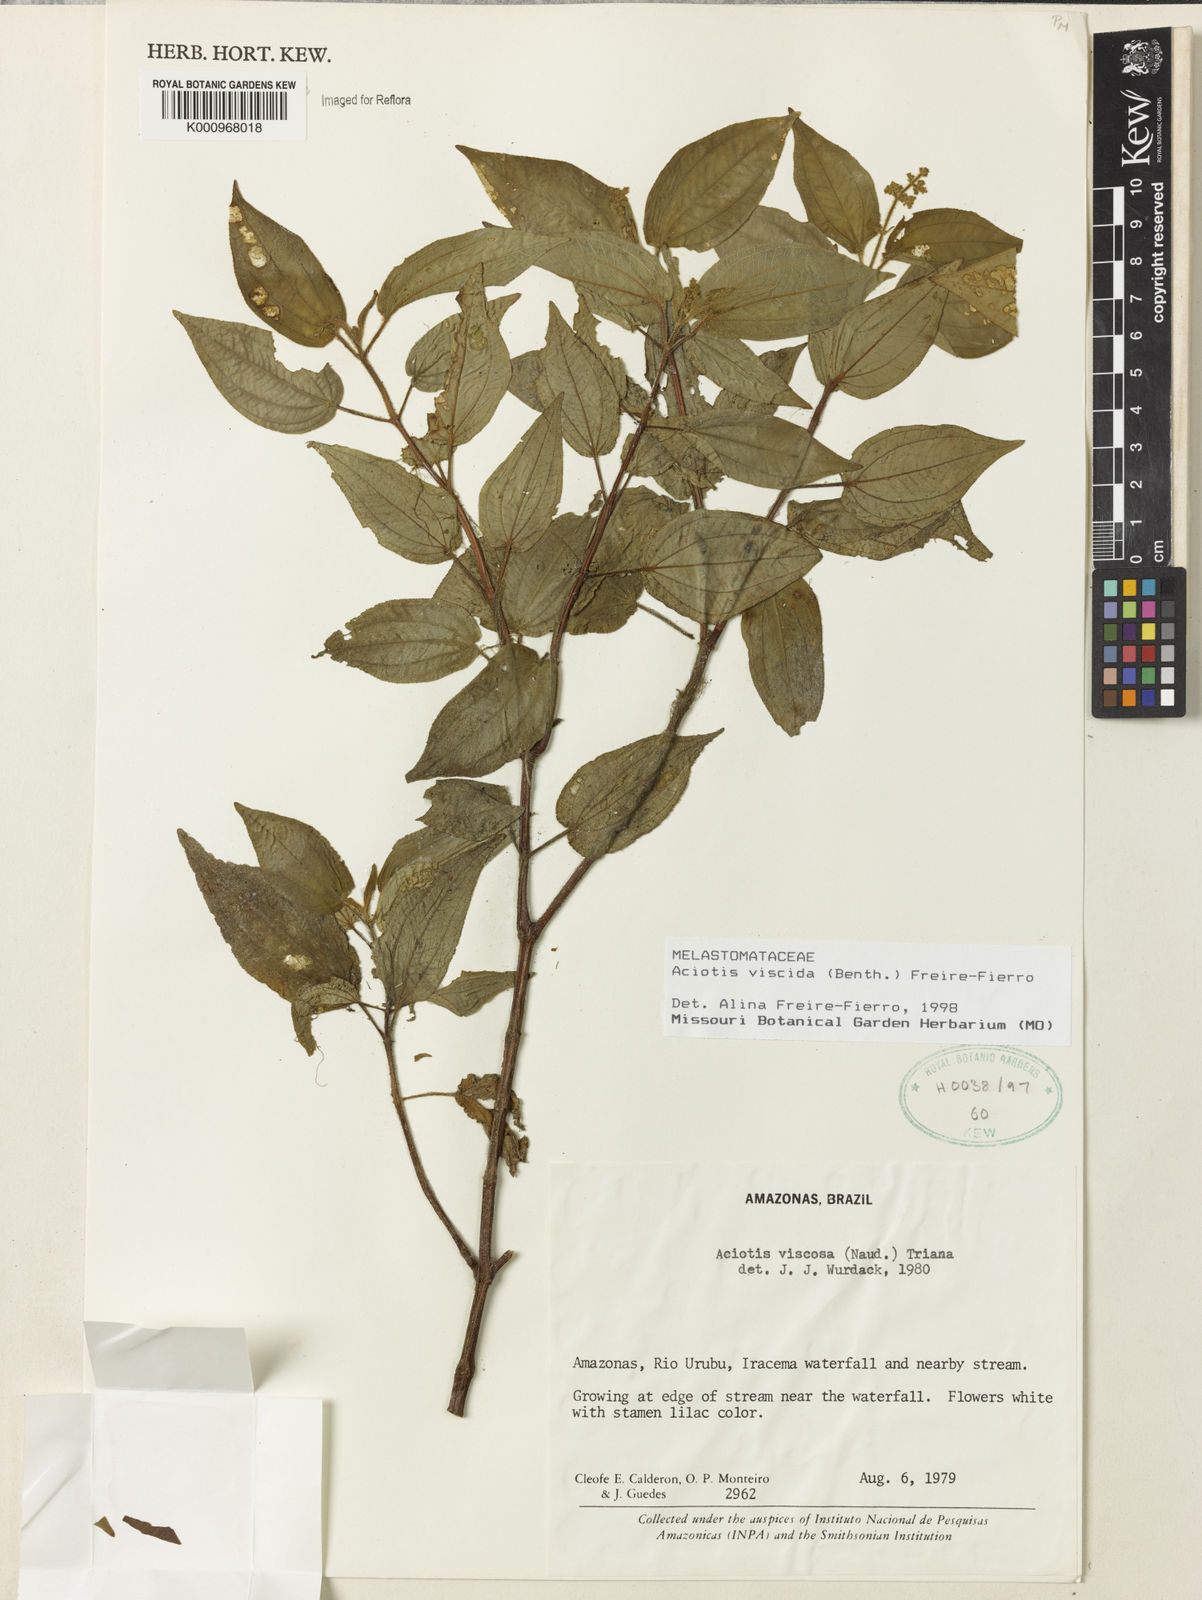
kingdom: Plantae
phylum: Tracheophyta
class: Magnoliopsida
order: Myrtales
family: Melastomataceae
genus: Aciotis
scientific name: Aciotis viscida
